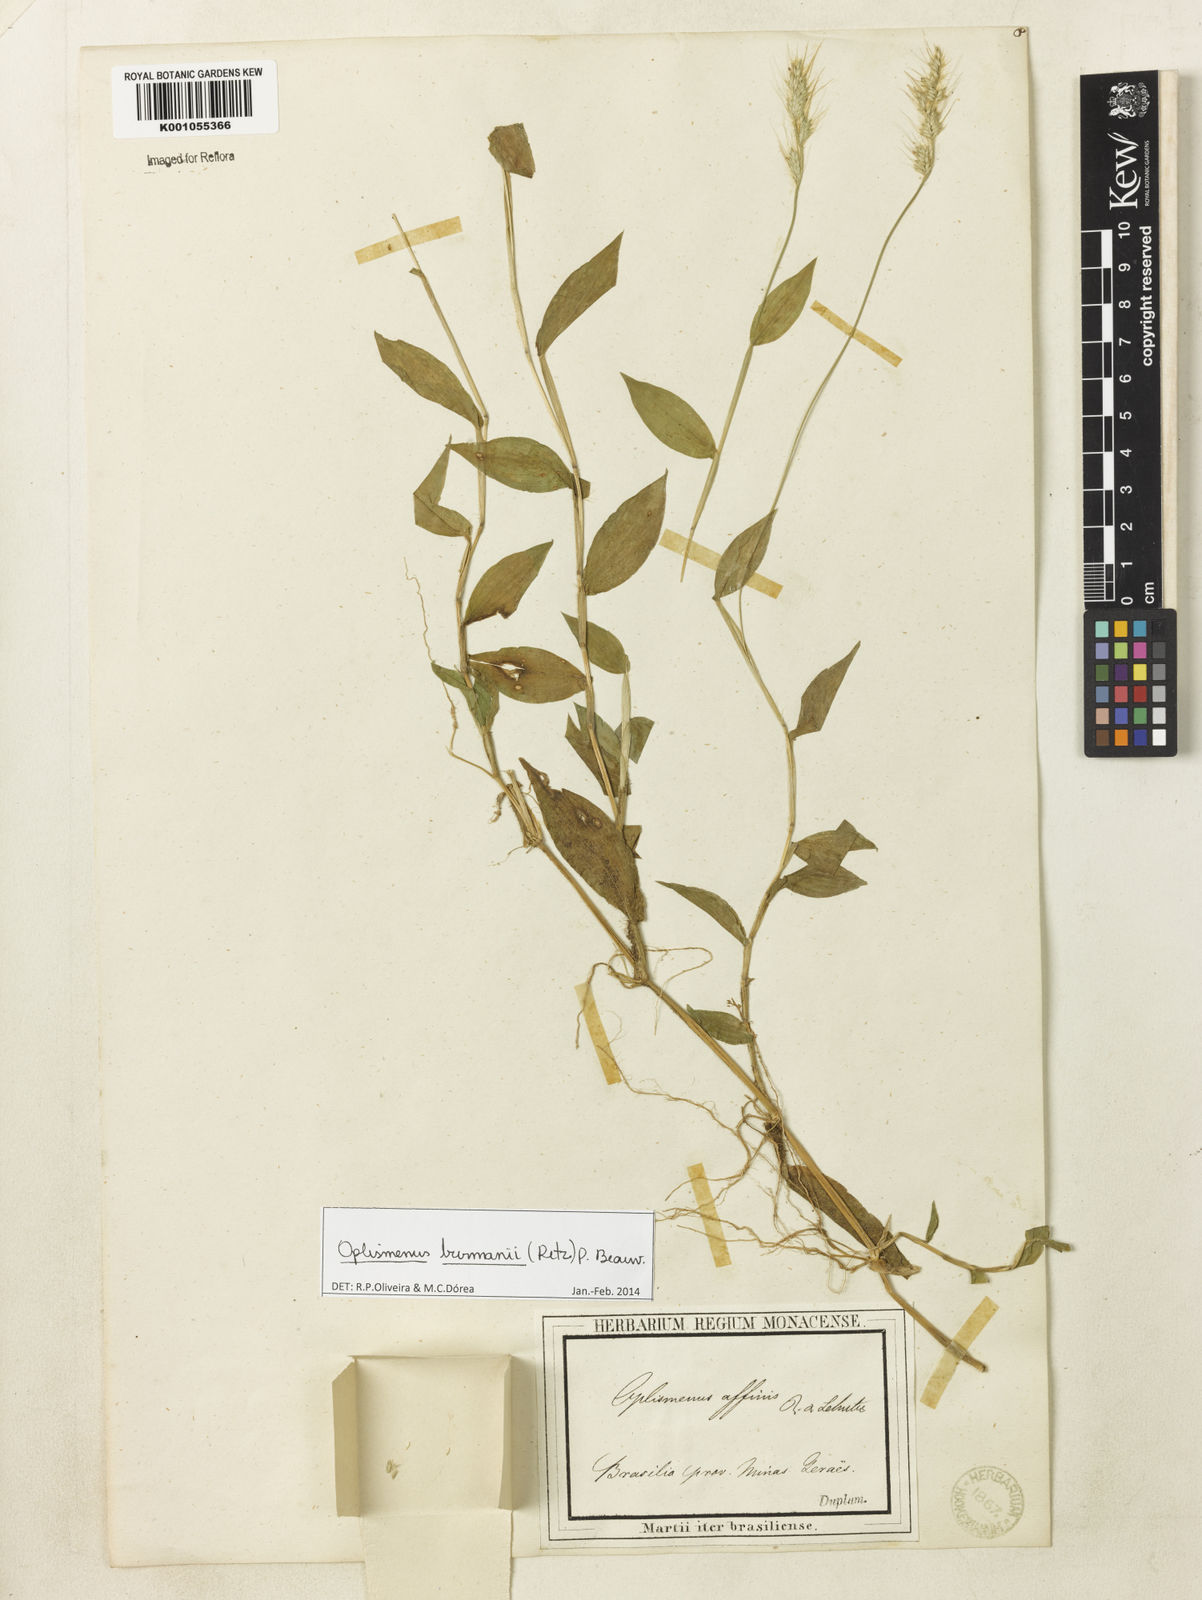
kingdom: Plantae
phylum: Tracheophyta
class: Liliopsida
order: Poales
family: Poaceae
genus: Oplismenus
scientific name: Oplismenus burmanni
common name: Burmann's basketgrass
